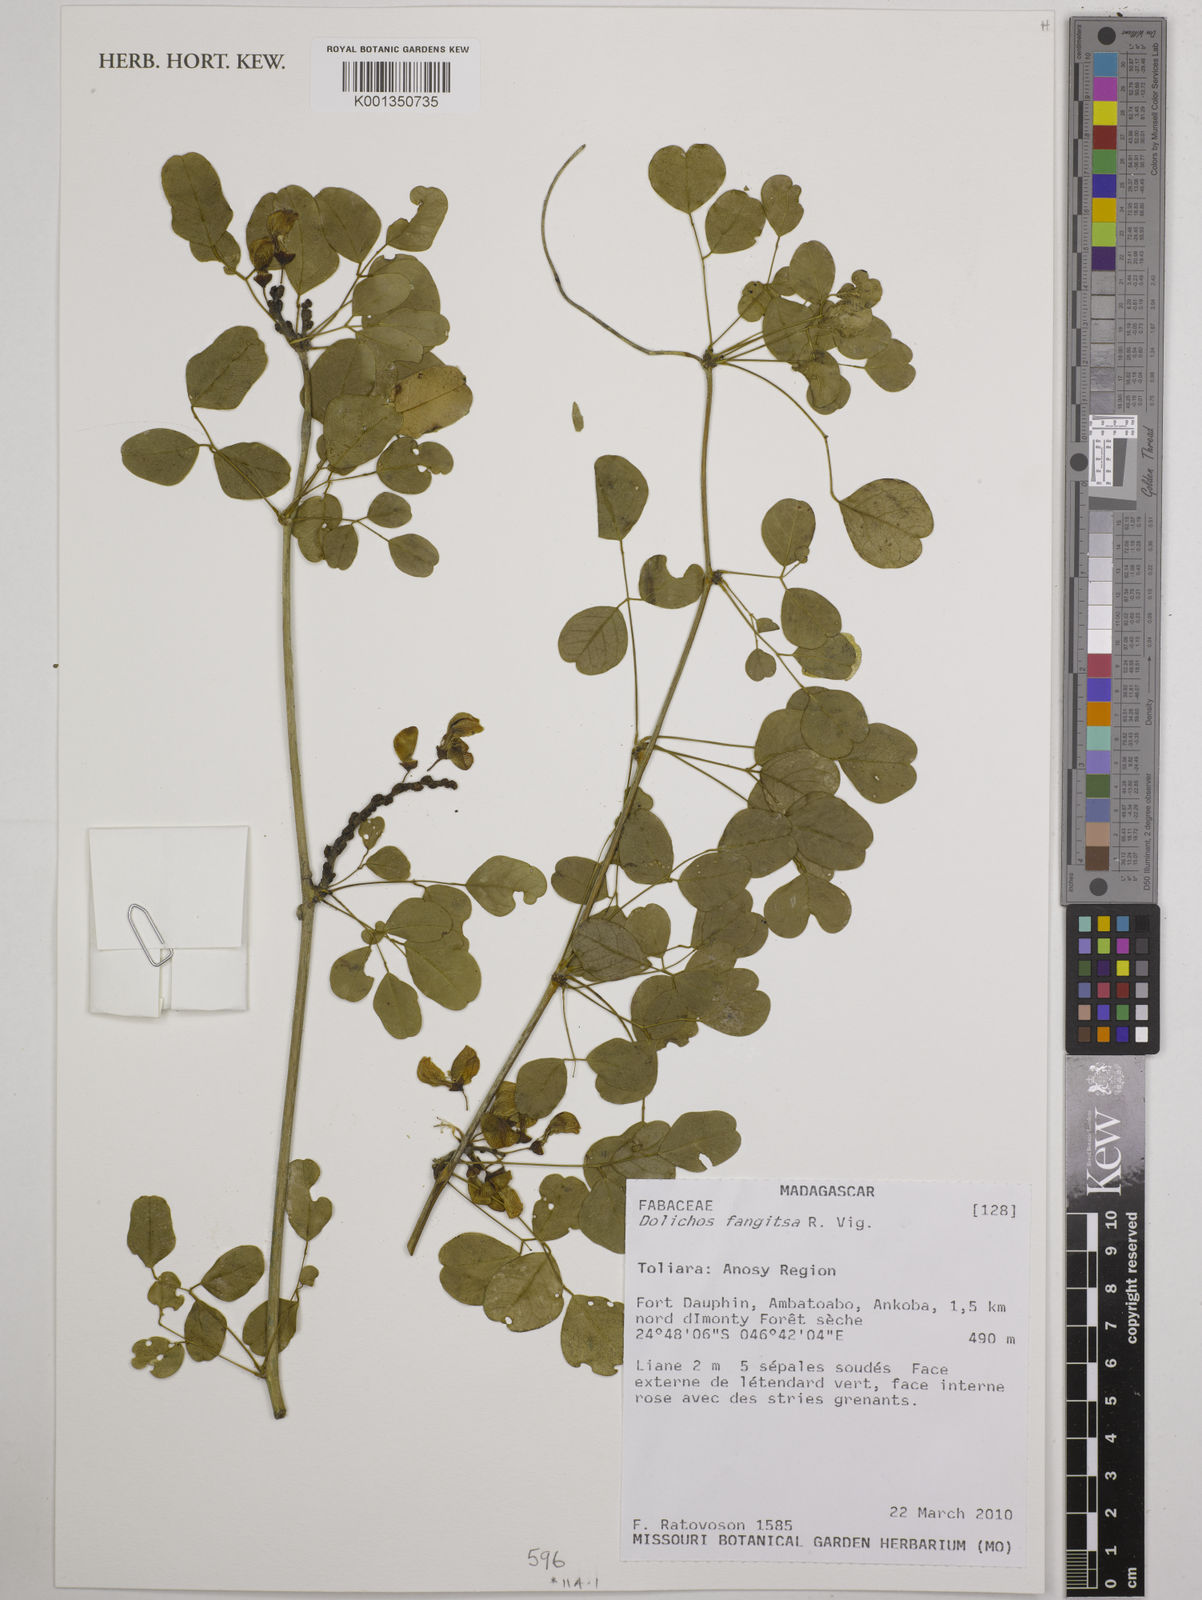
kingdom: Plantae
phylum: Tracheophyta
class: Magnoliopsida
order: Fabales
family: Fabaceae
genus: Dolichos
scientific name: Dolichos fangitsa
